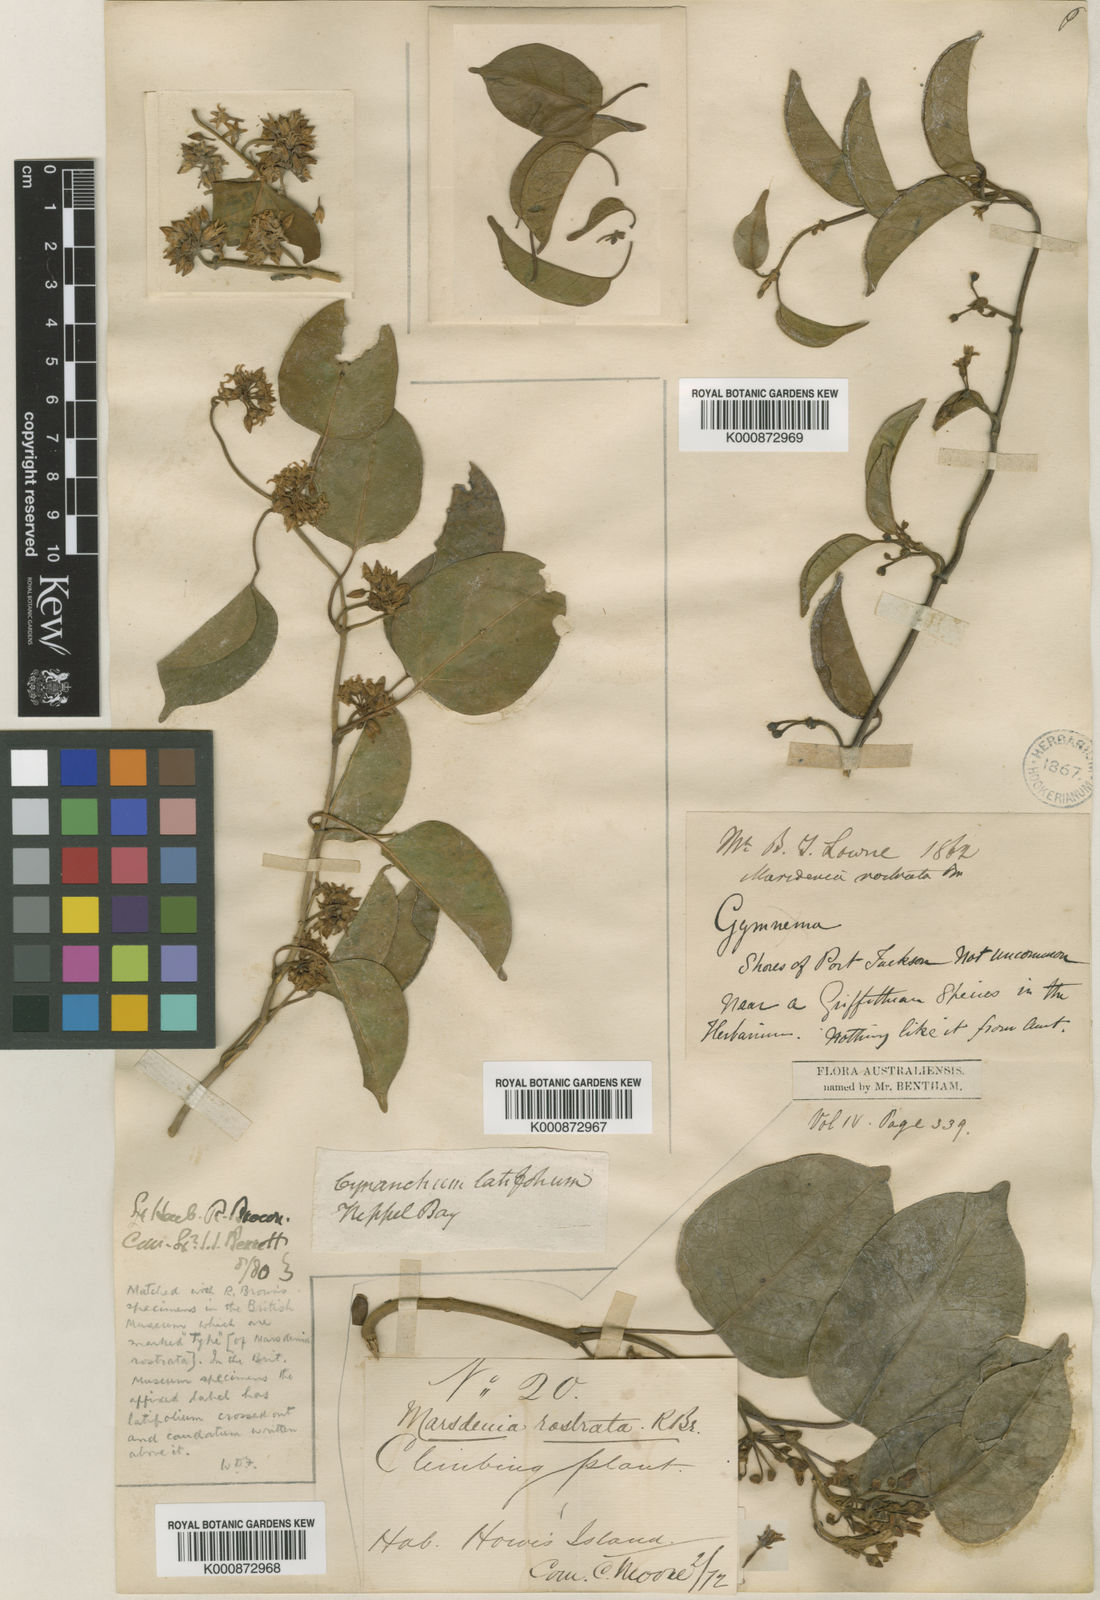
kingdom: Plantae
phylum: Tracheophyta
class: Magnoliopsida
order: Gentianales
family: Apocynaceae
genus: Leichhardtia
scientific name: Leichhardtia rostrata
